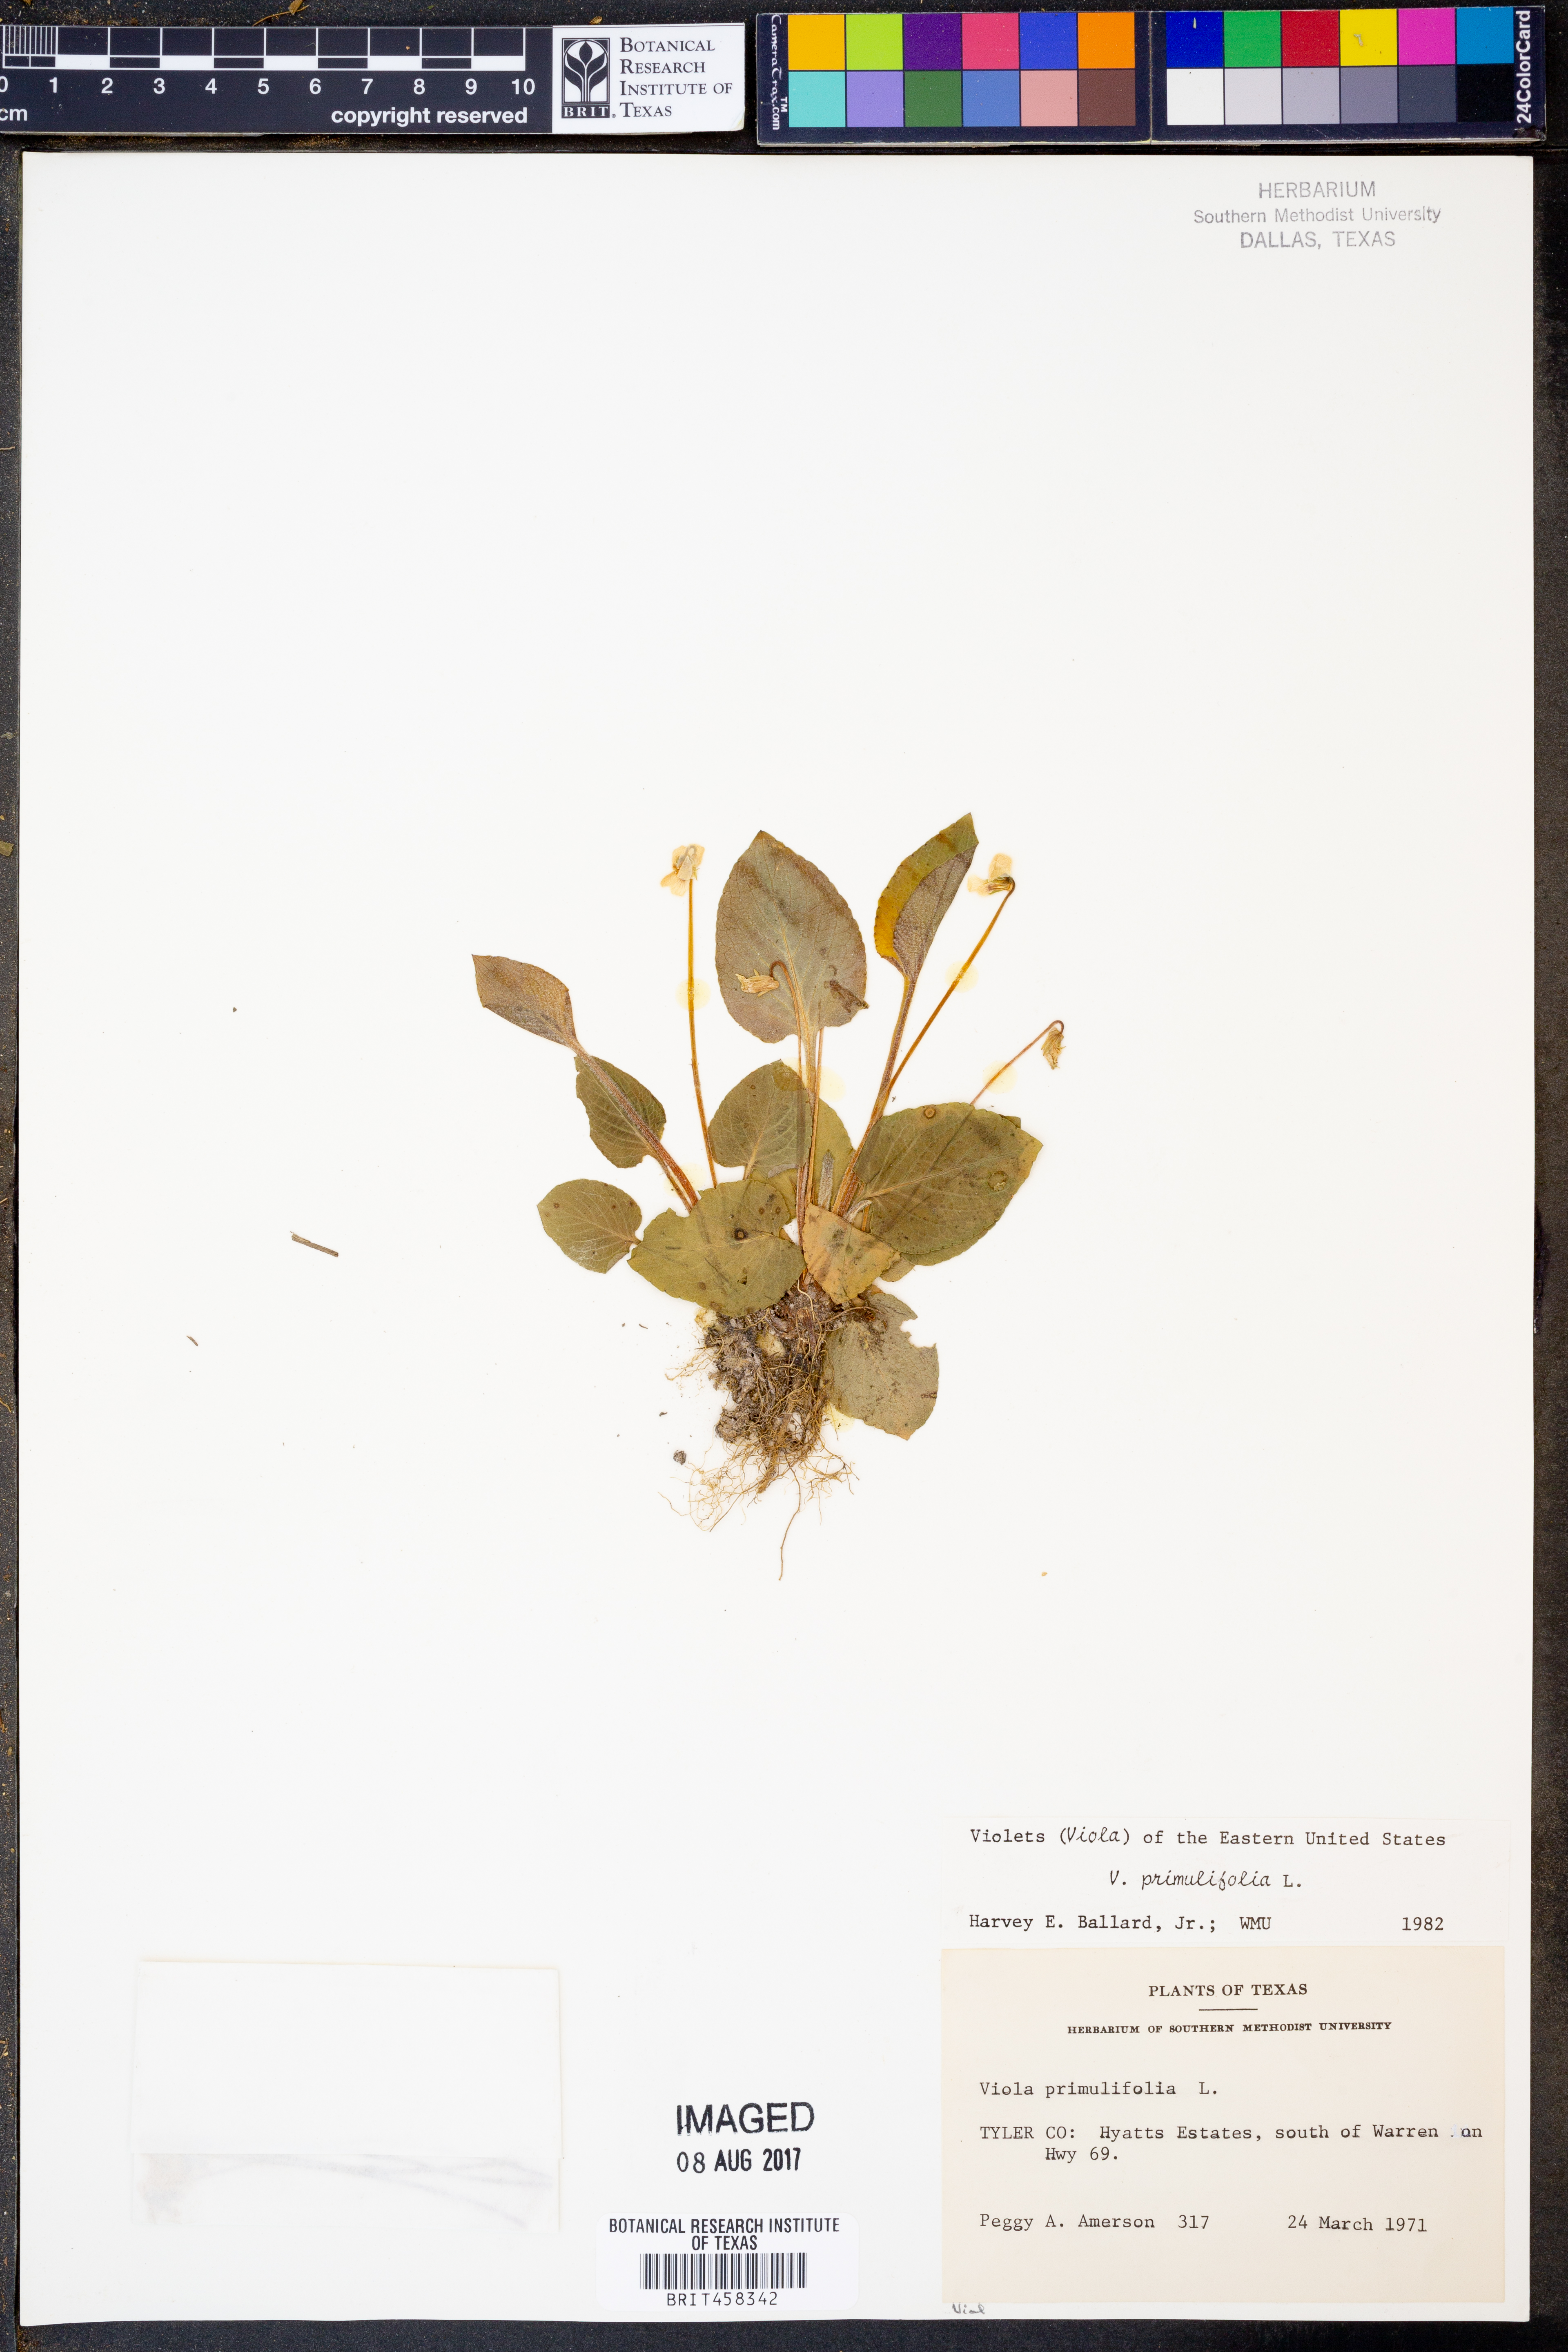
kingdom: Plantae
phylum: Tracheophyta
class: Magnoliopsida
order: Malpighiales
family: Violaceae
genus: Viola
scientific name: Viola primulifolia
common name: Primrose-leaf violet
